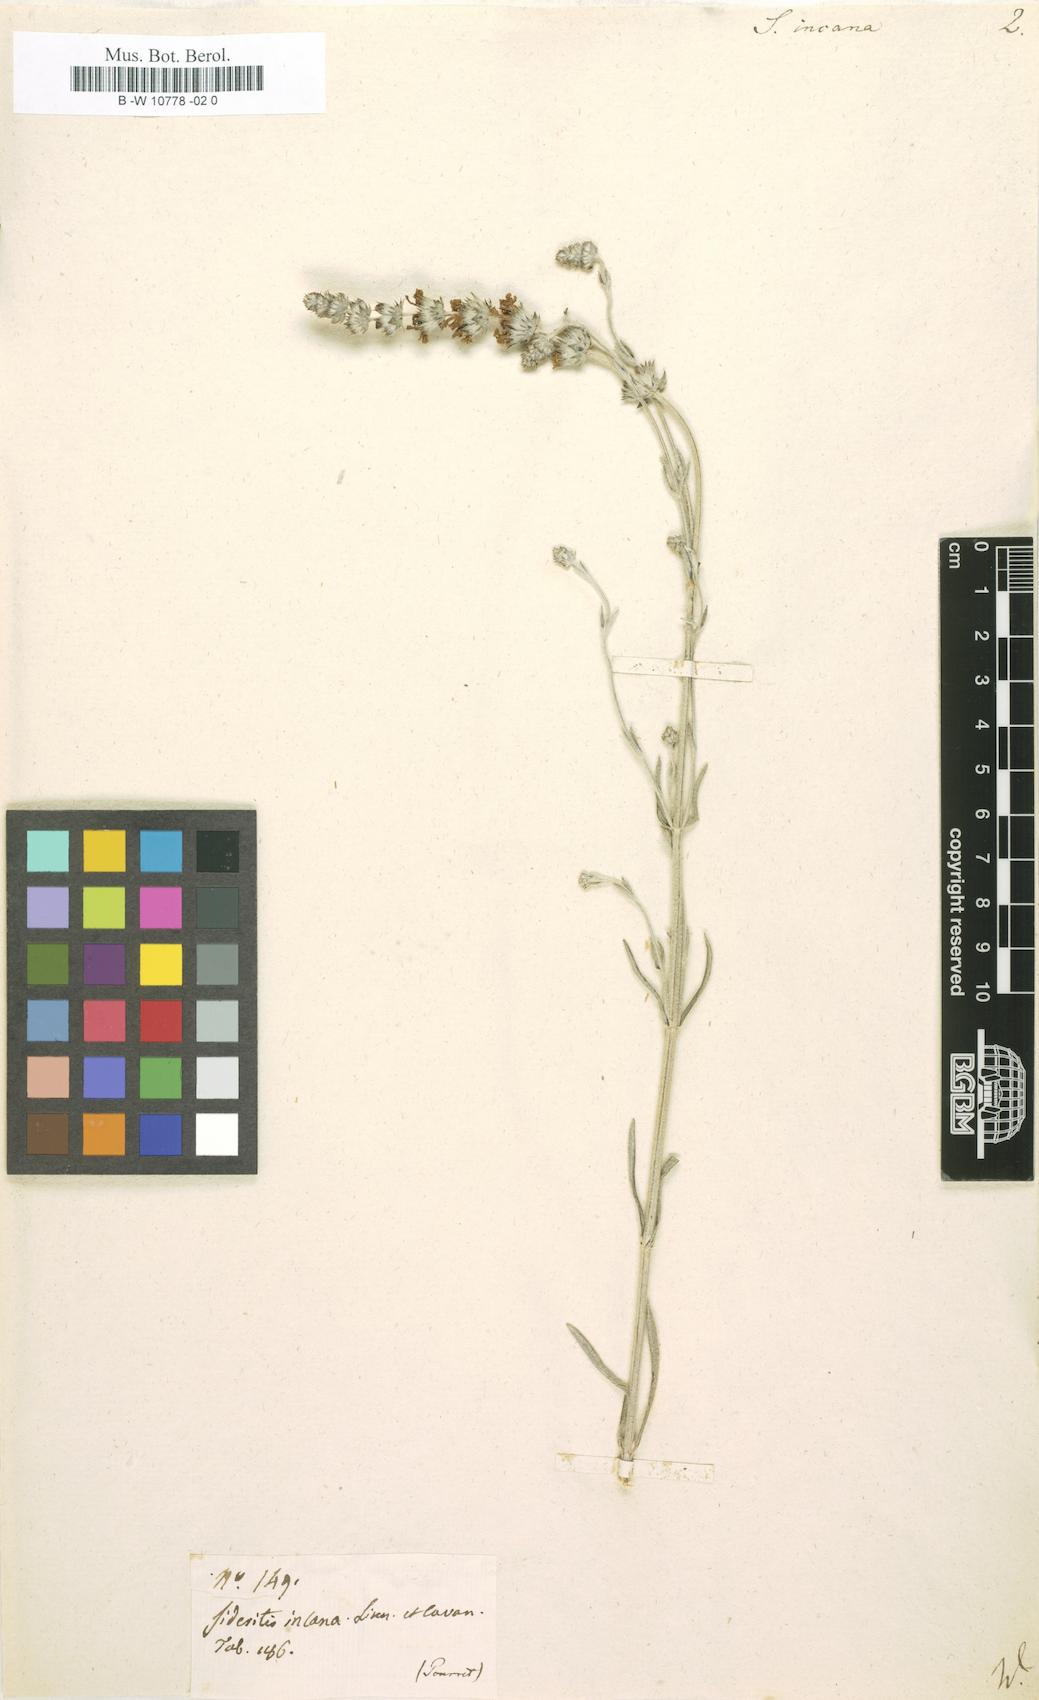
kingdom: Plantae
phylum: Tracheophyta
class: Magnoliopsida
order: Lamiales
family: Lamiaceae
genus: Sideritis
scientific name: Sideritis incana
